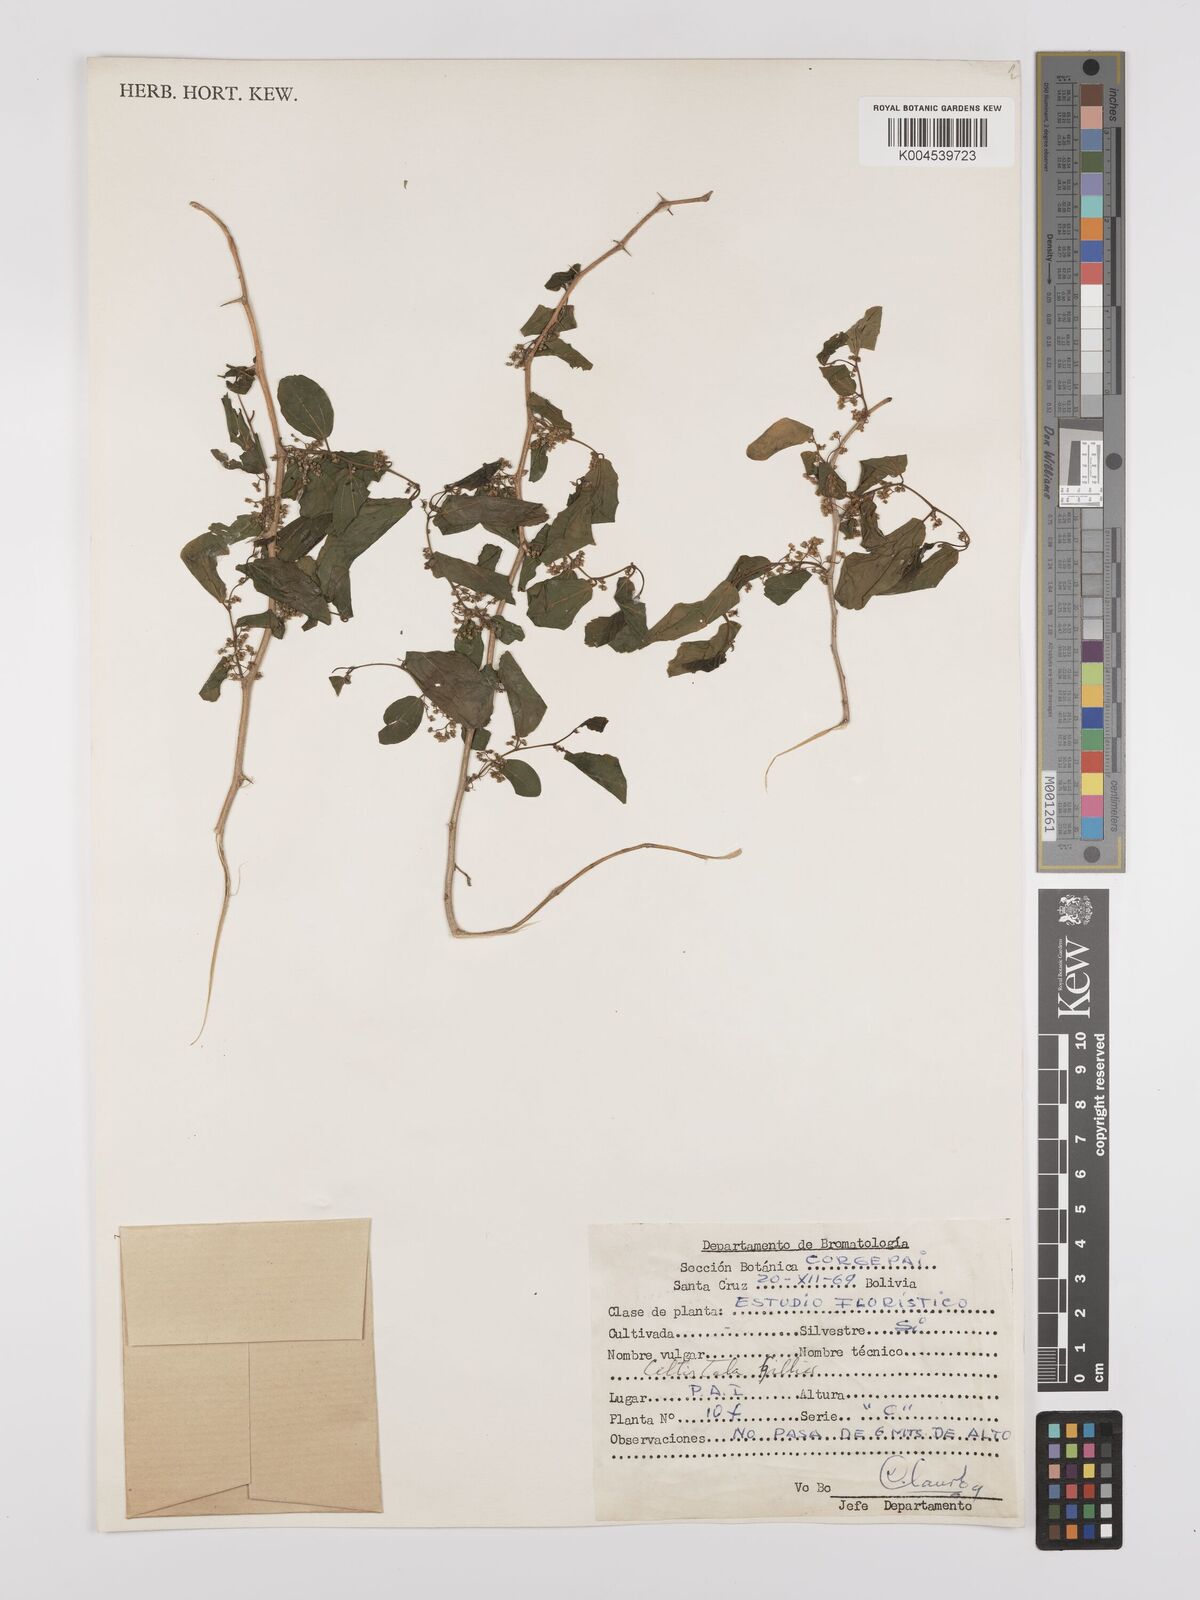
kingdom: Plantae
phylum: Tracheophyta
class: Magnoliopsida
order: Rosales
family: Cannabaceae
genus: Celtis
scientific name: Celtis tala
